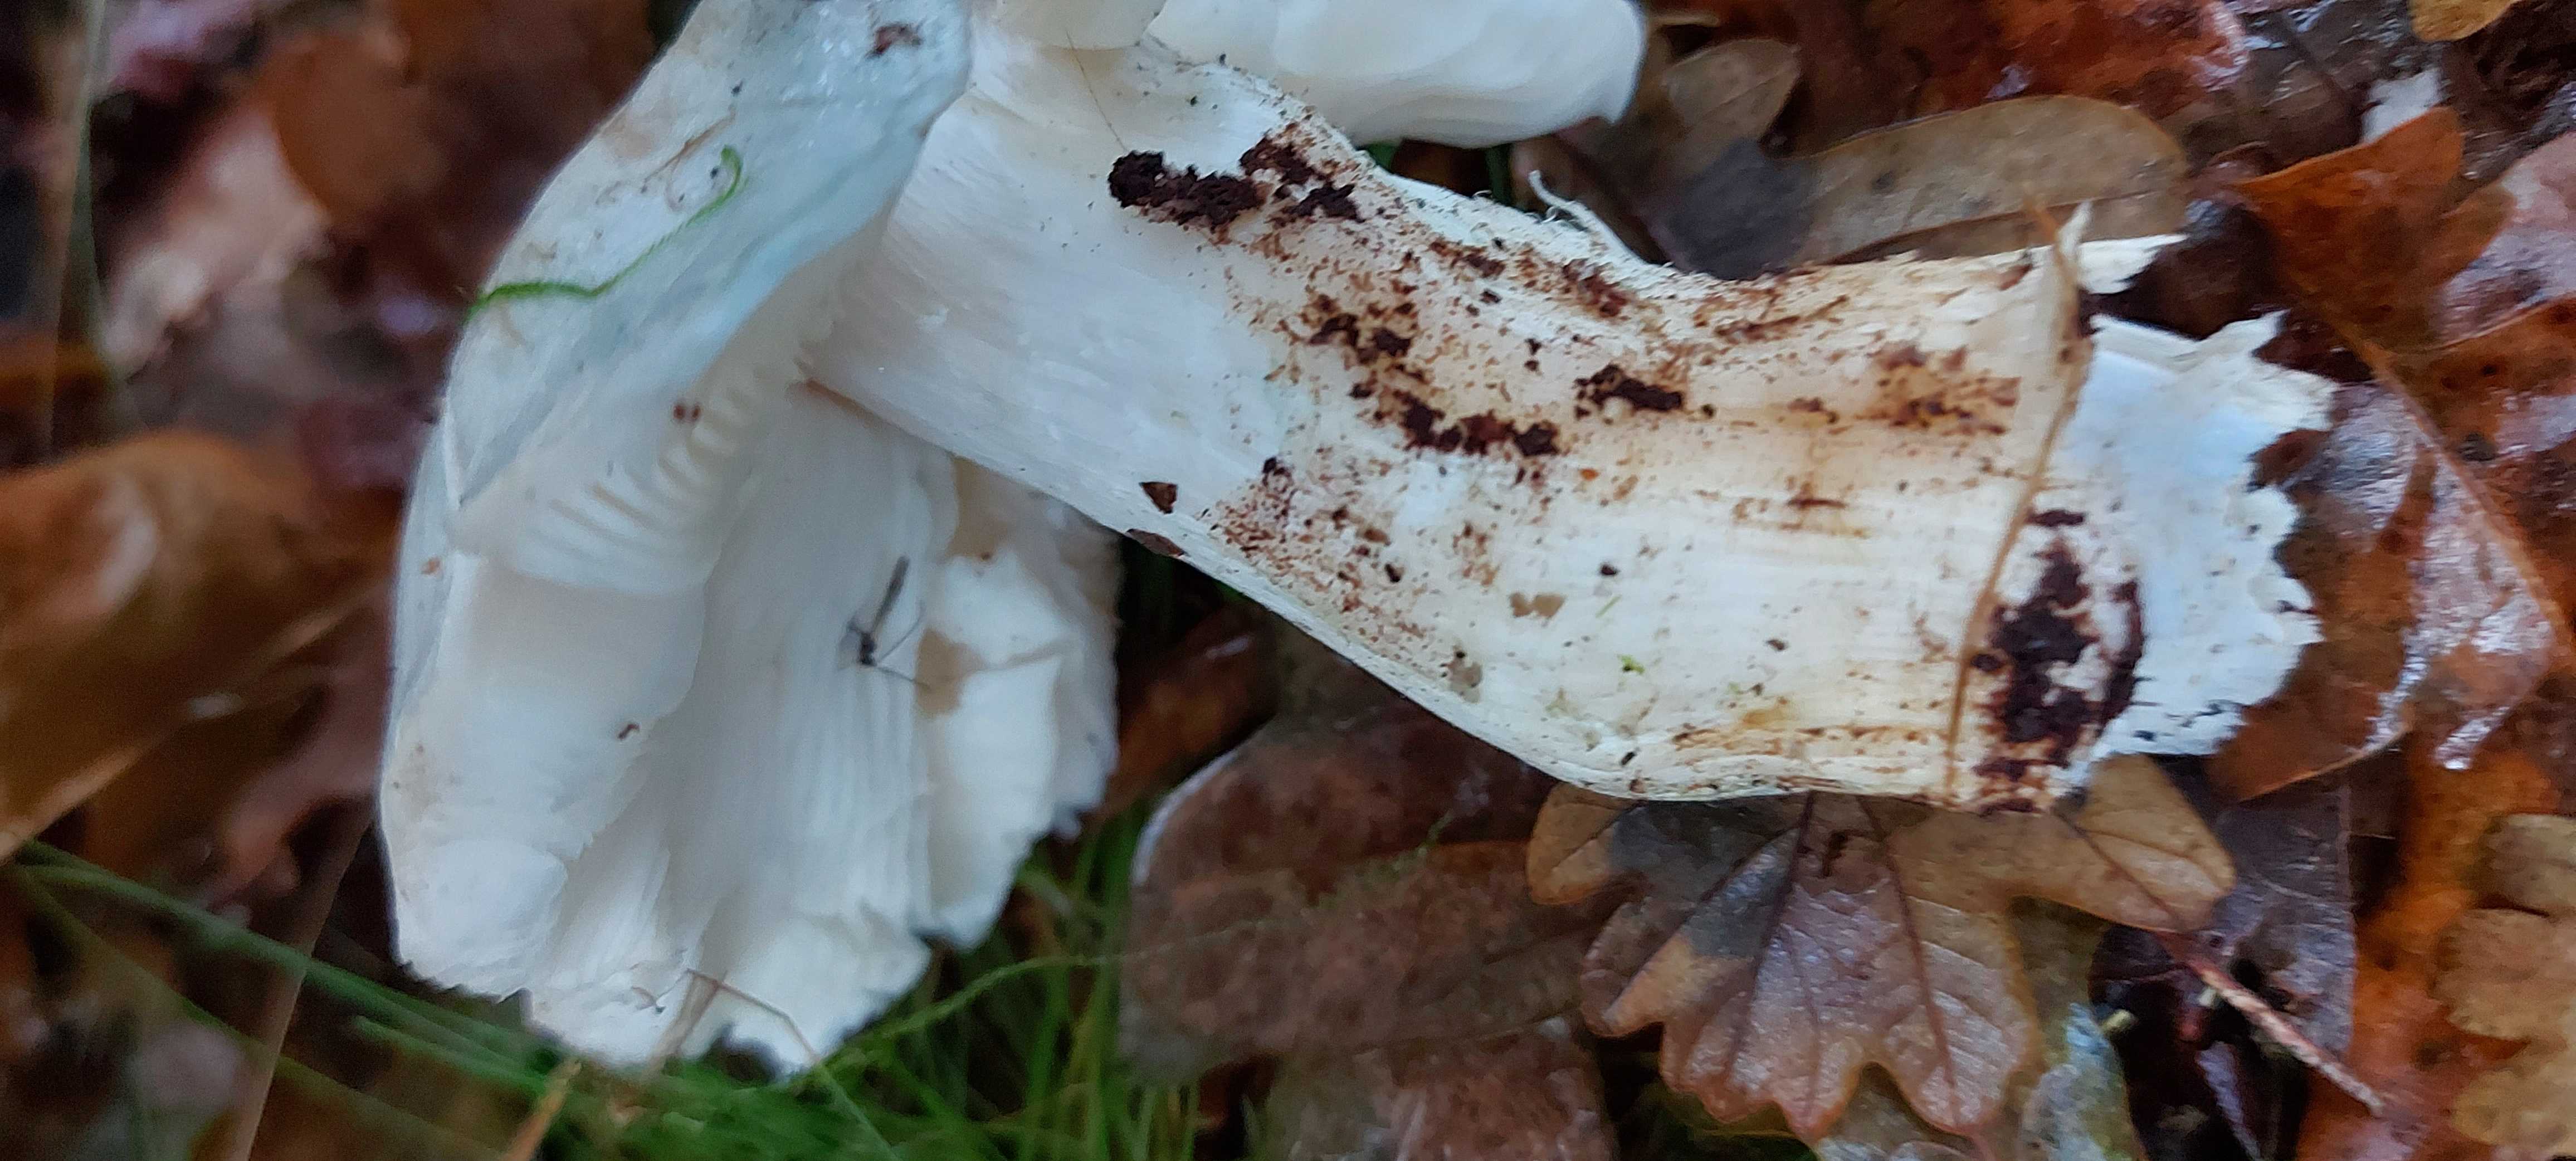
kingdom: Fungi
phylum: Basidiomycota
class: Agaricomycetes
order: Agaricales
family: Tricholomataceae
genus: Tricholoma
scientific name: Tricholoma columbetta
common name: silke-ridderhat
